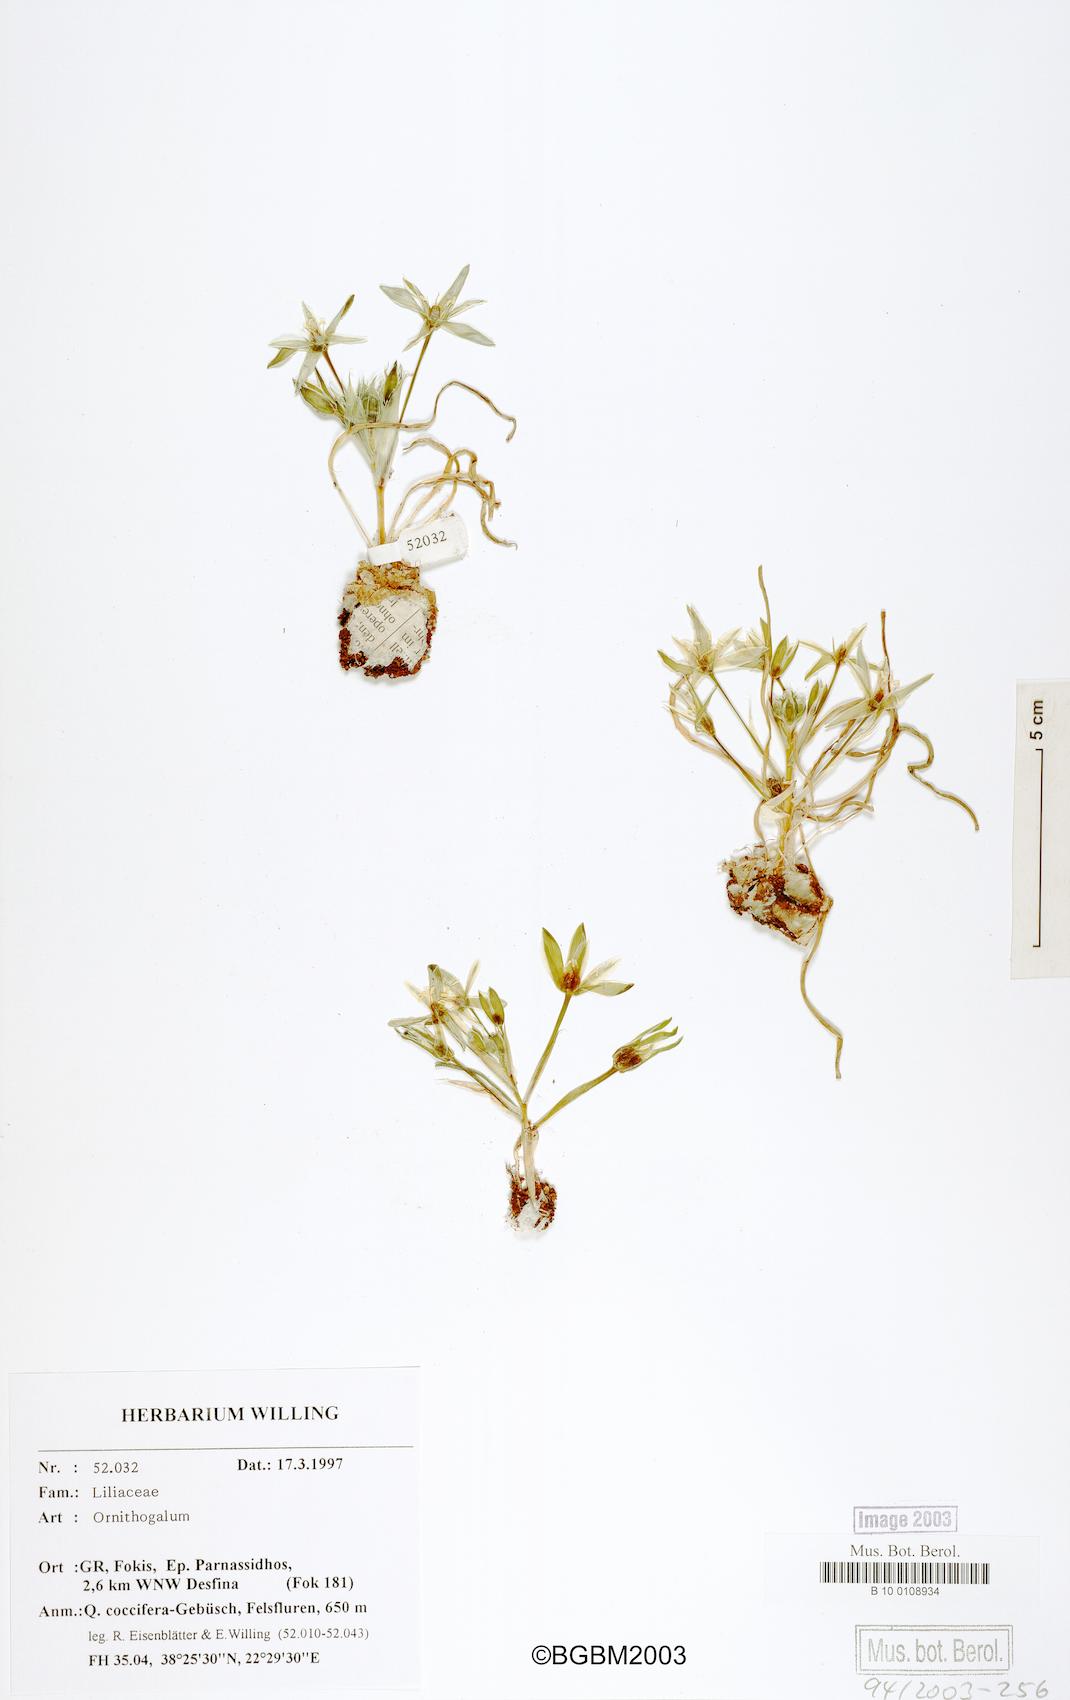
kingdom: Plantae
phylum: Tracheophyta
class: Liliopsida
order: Asparagales
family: Asparagaceae
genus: Ornithogalum
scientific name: Ornithogalum
